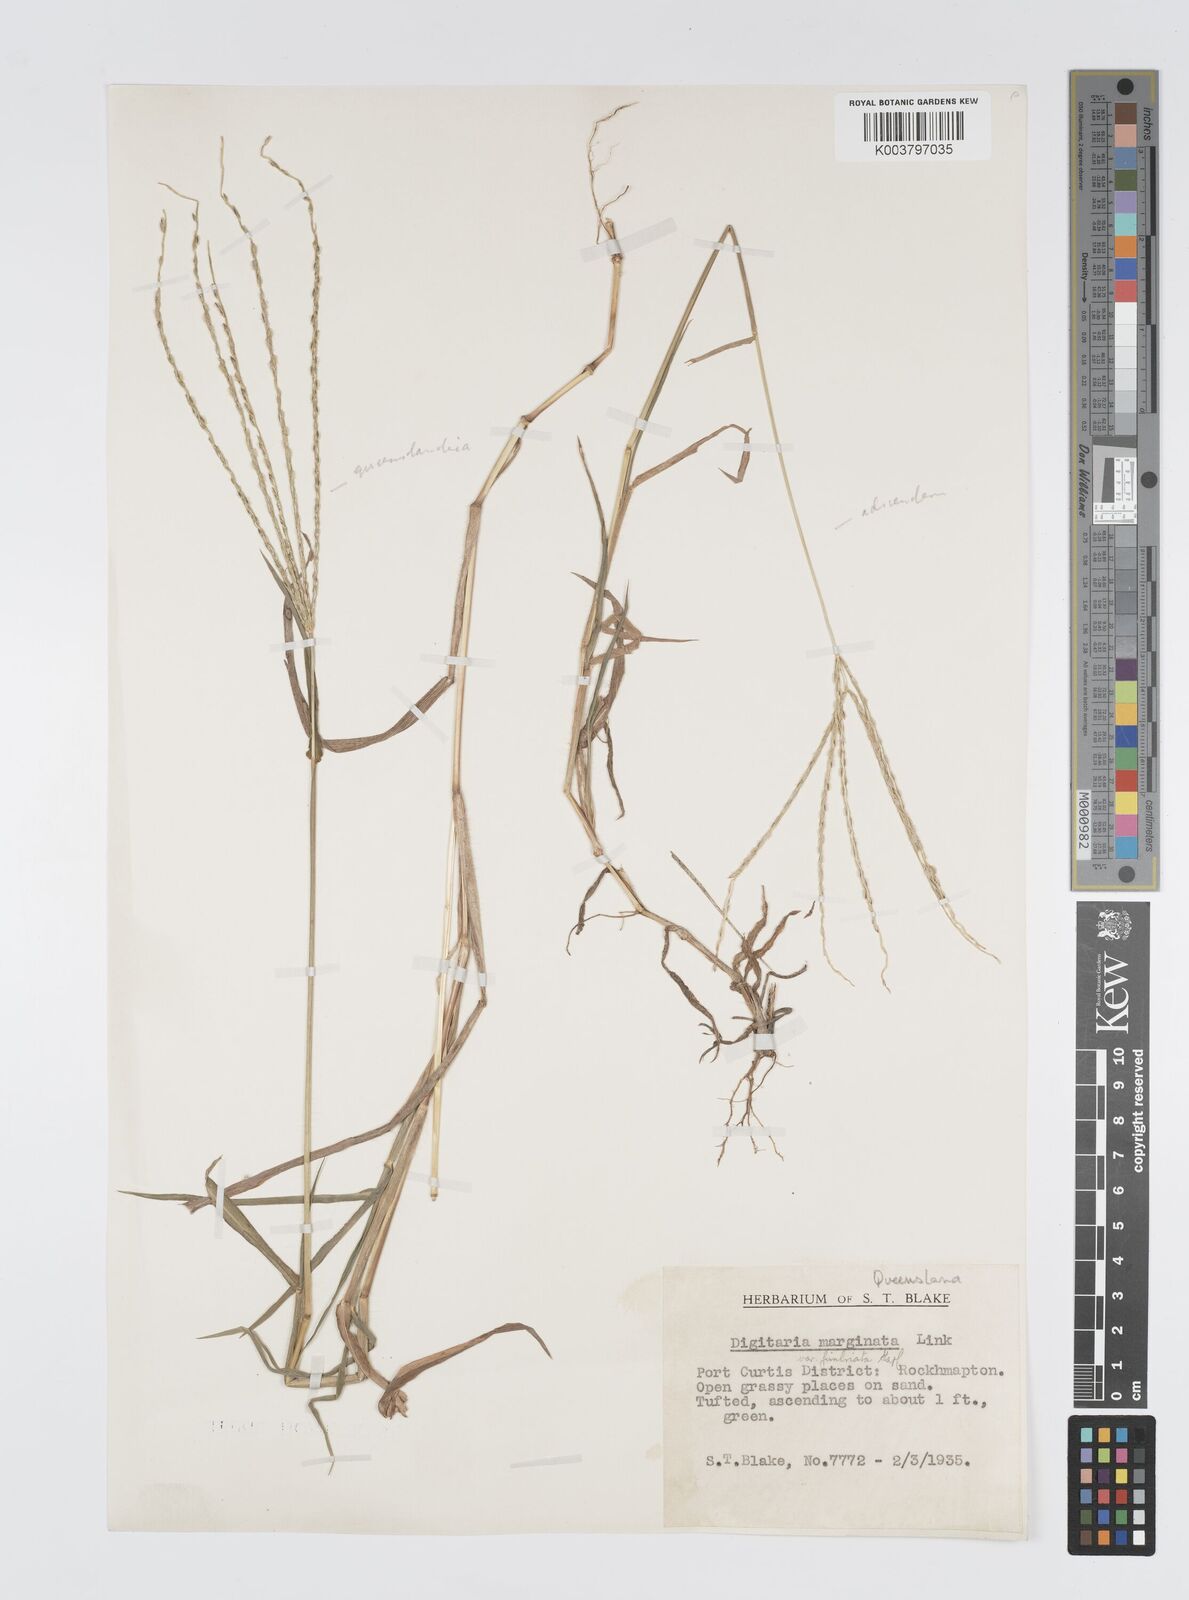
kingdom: Plantae
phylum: Tracheophyta
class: Liliopsida
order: Poales
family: Poaceae
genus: Digitaria
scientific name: Digitaria ciliaris
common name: Tropical finger-grass
